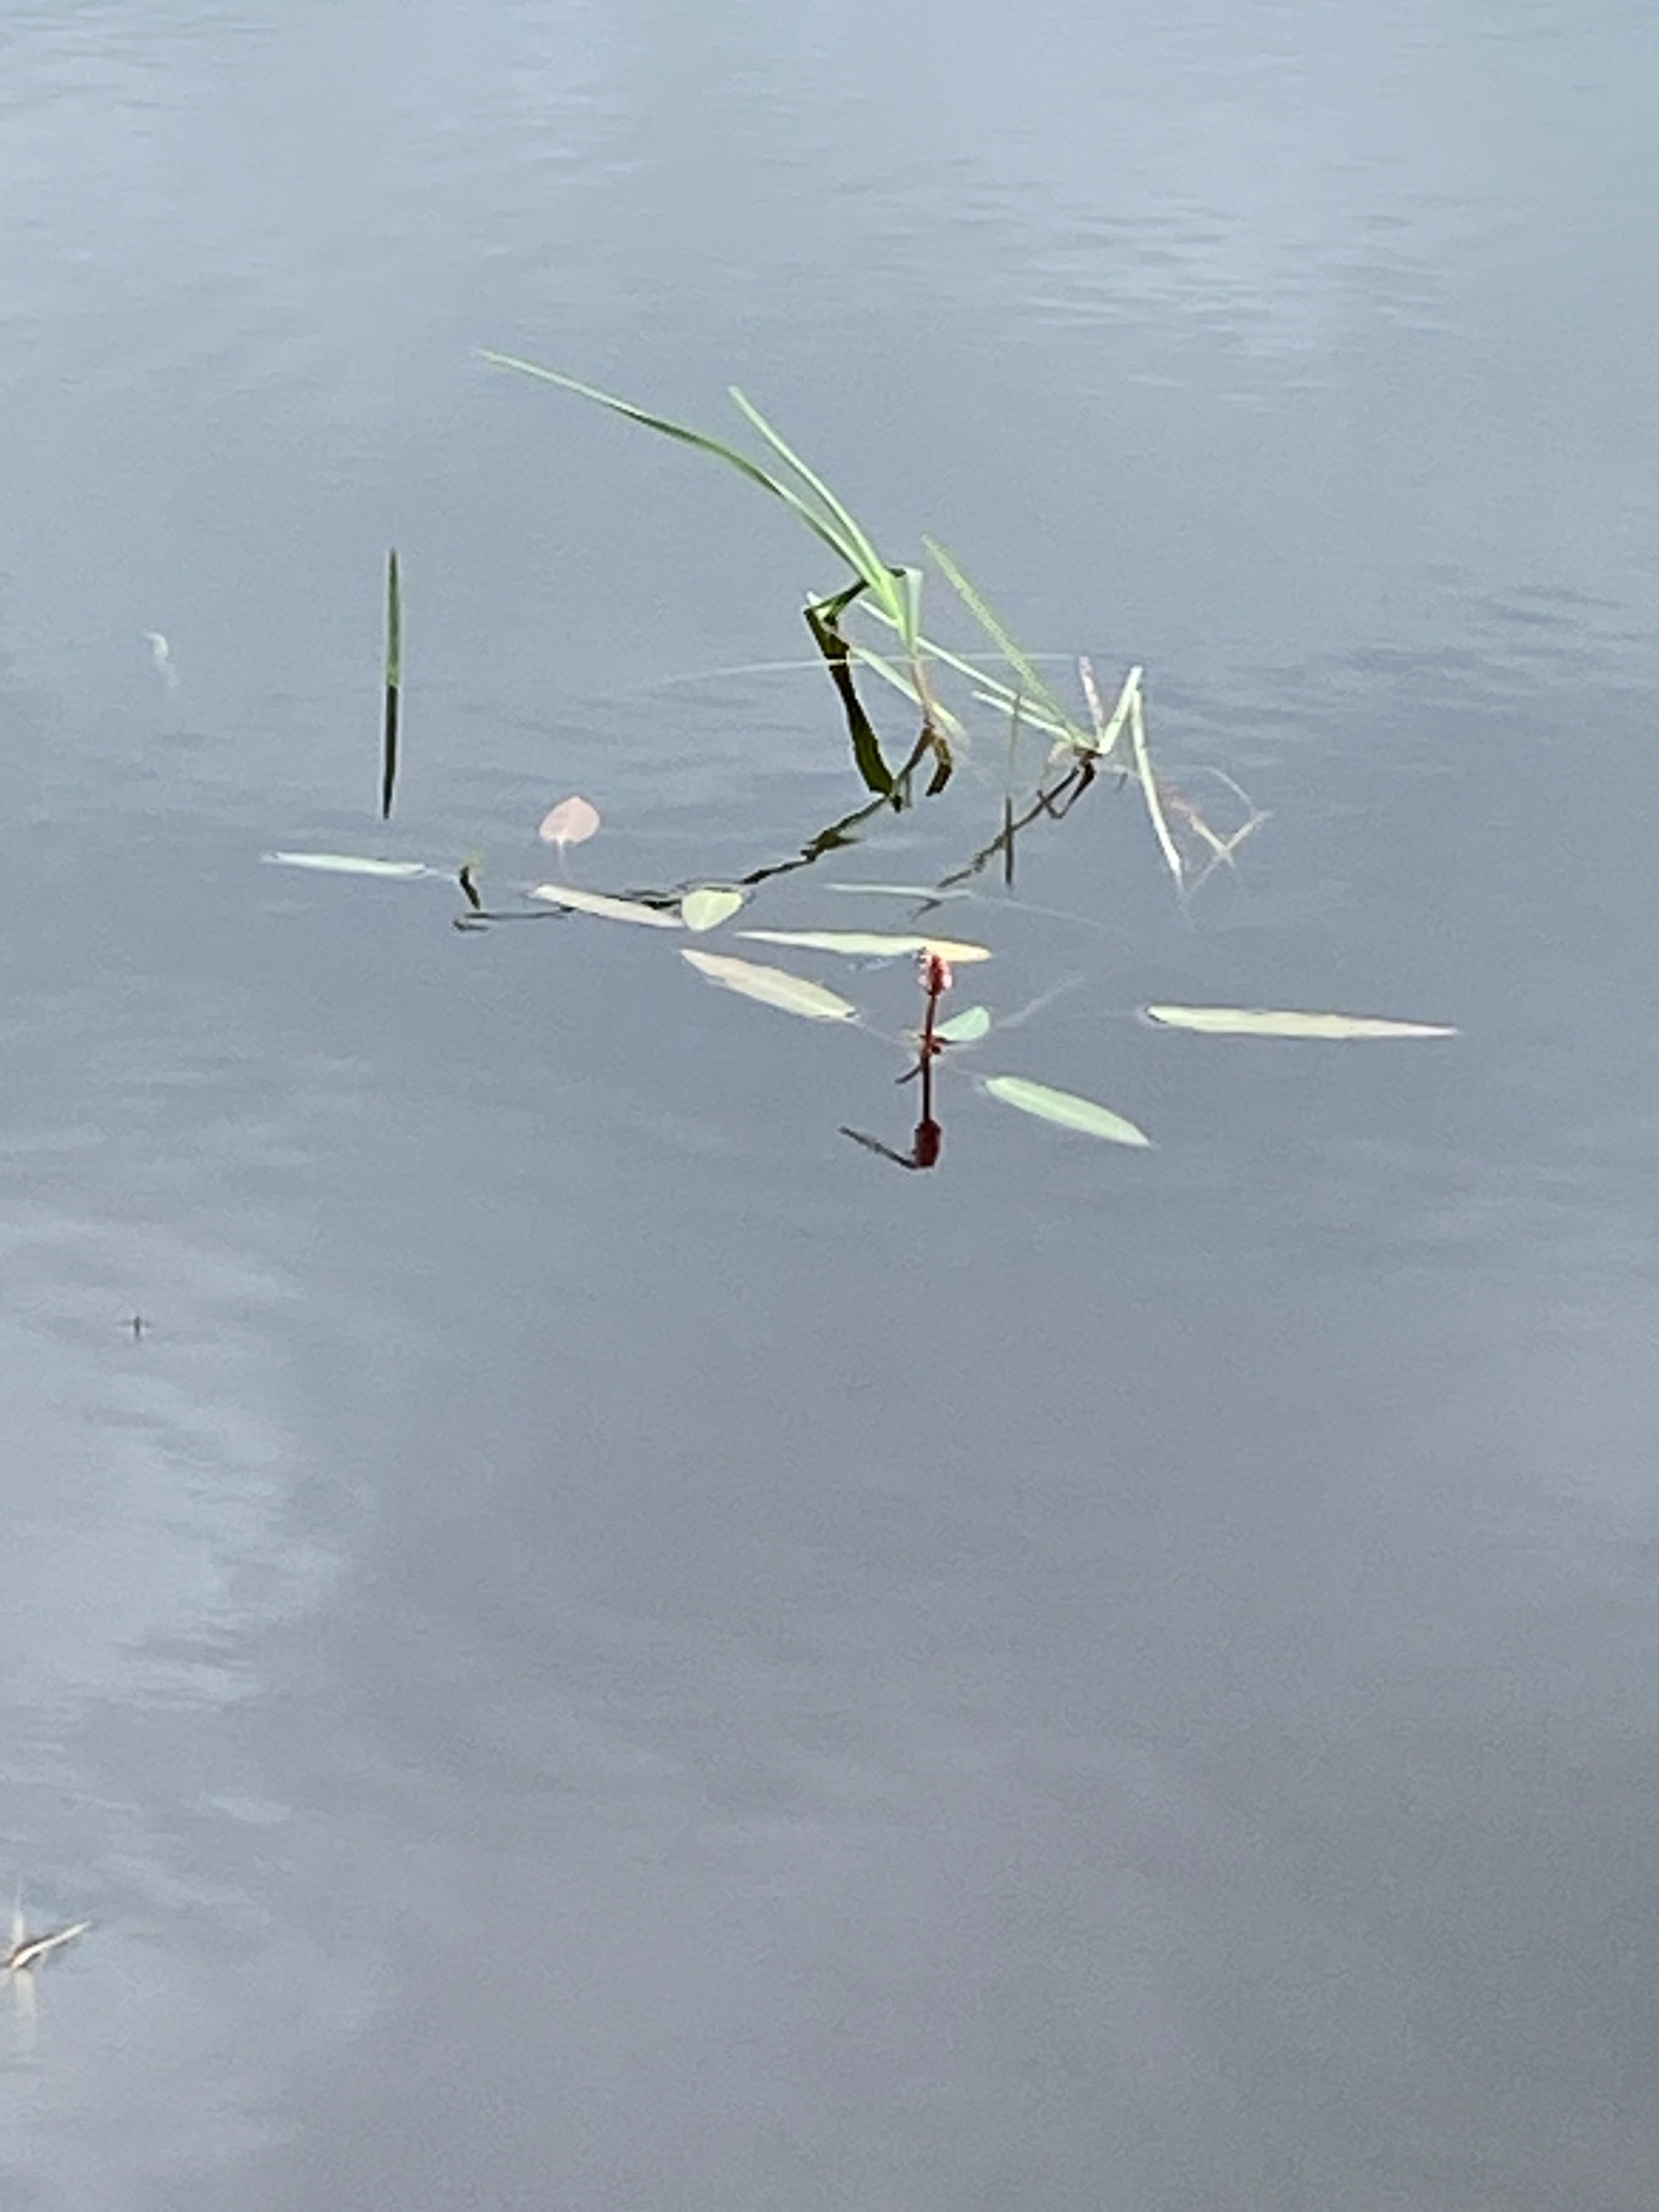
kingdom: Plantae
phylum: Tracheophyta
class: Magnoliopsida
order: Caryophyllales
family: Polygonaceae
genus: Persicaria
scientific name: Persicaria amphibia
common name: Vand-pileurt
